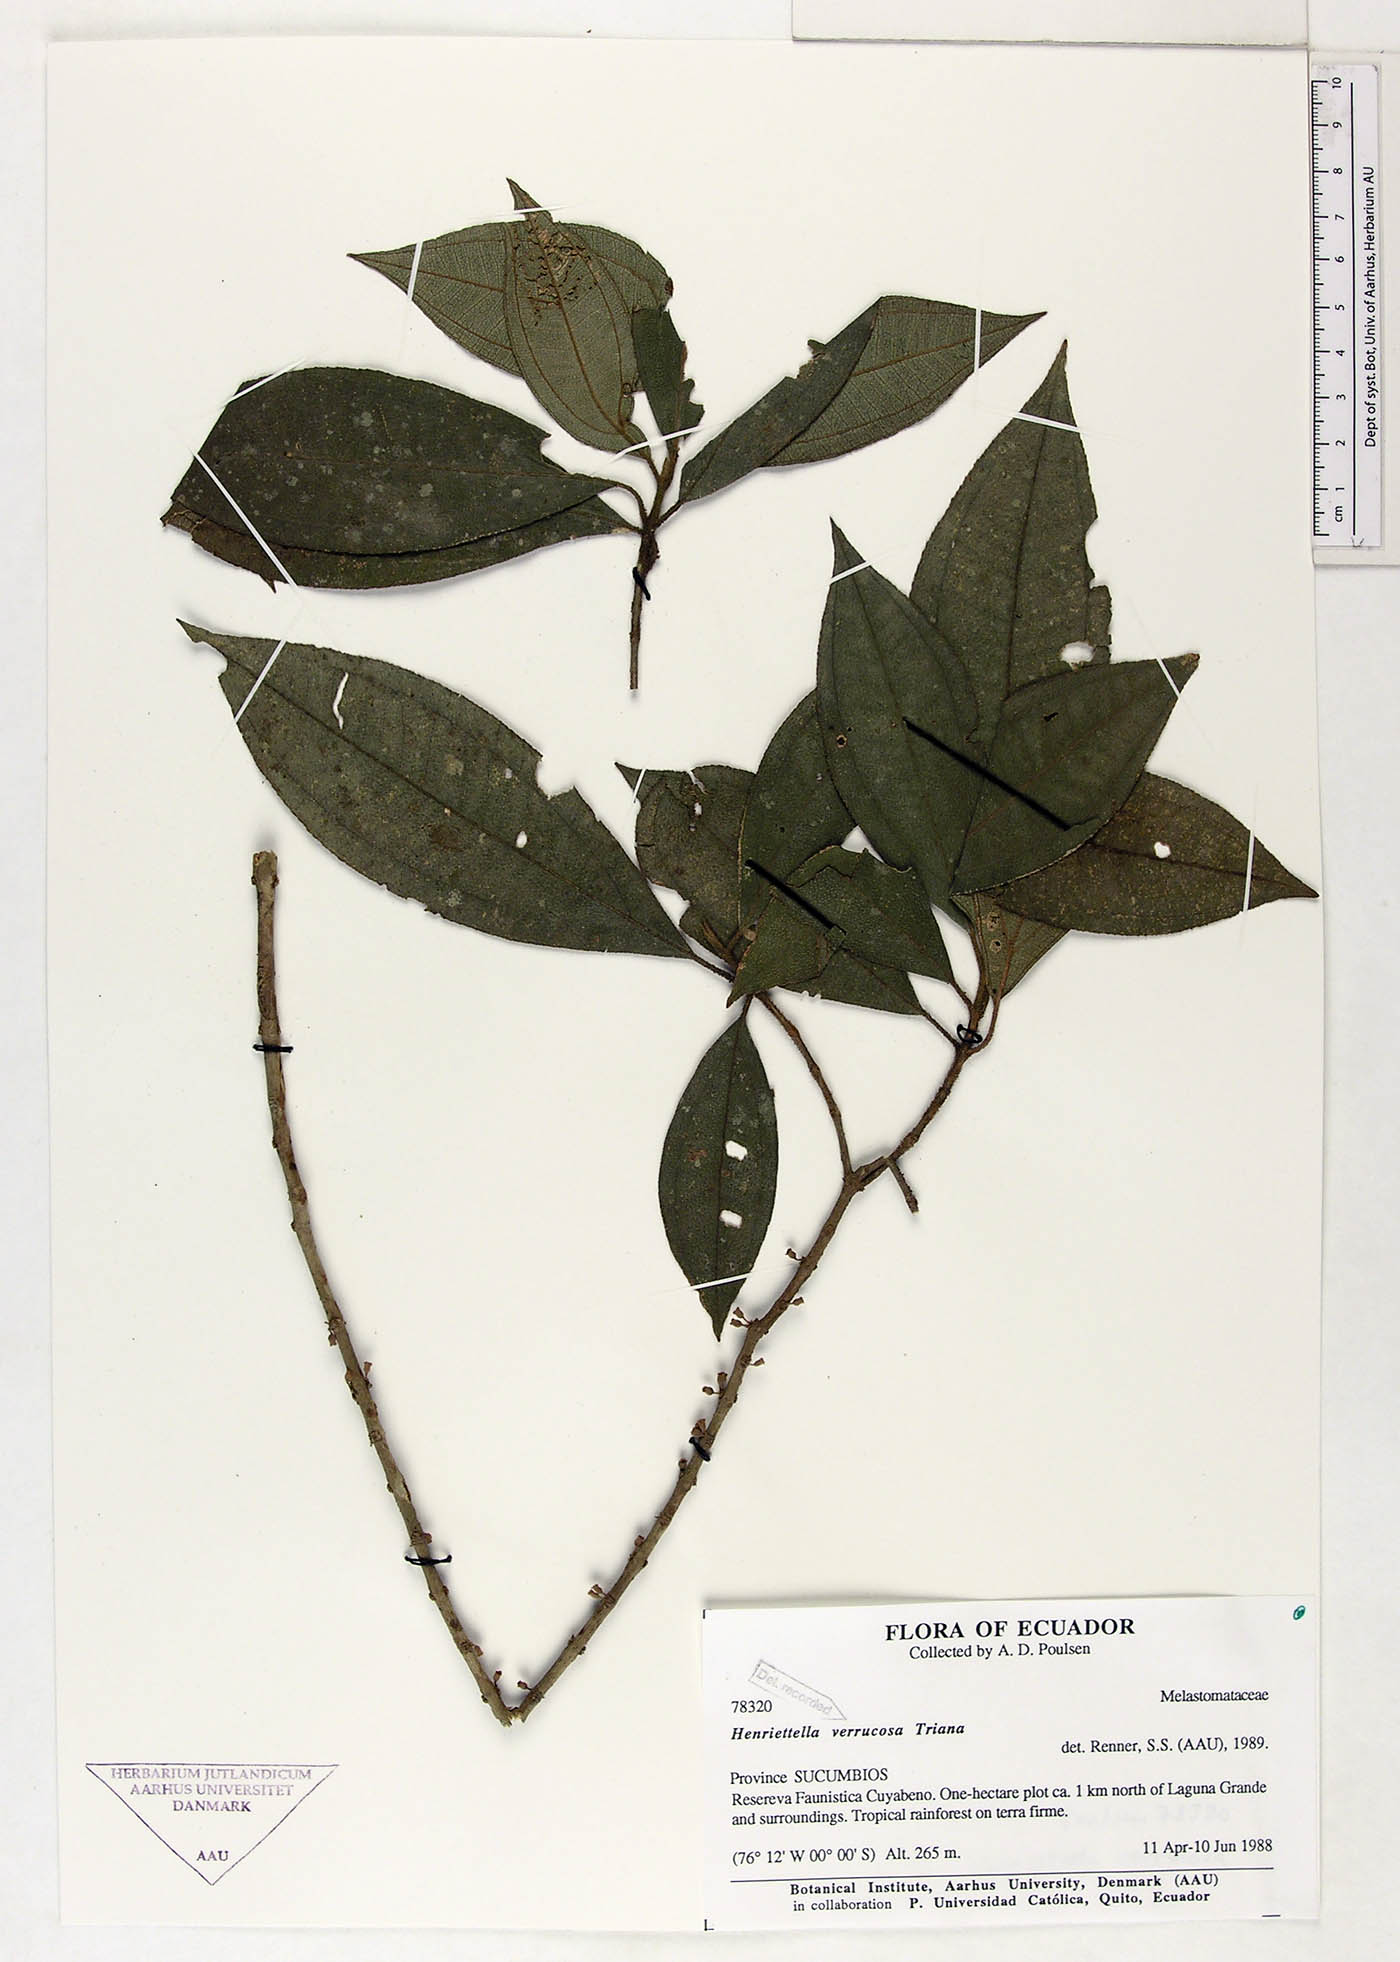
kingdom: Plantae
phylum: Tracheophyta
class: Magnoliopsida
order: Myrtales
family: Melastomataceae
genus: Henriettea
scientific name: Henriettea verrucosa
